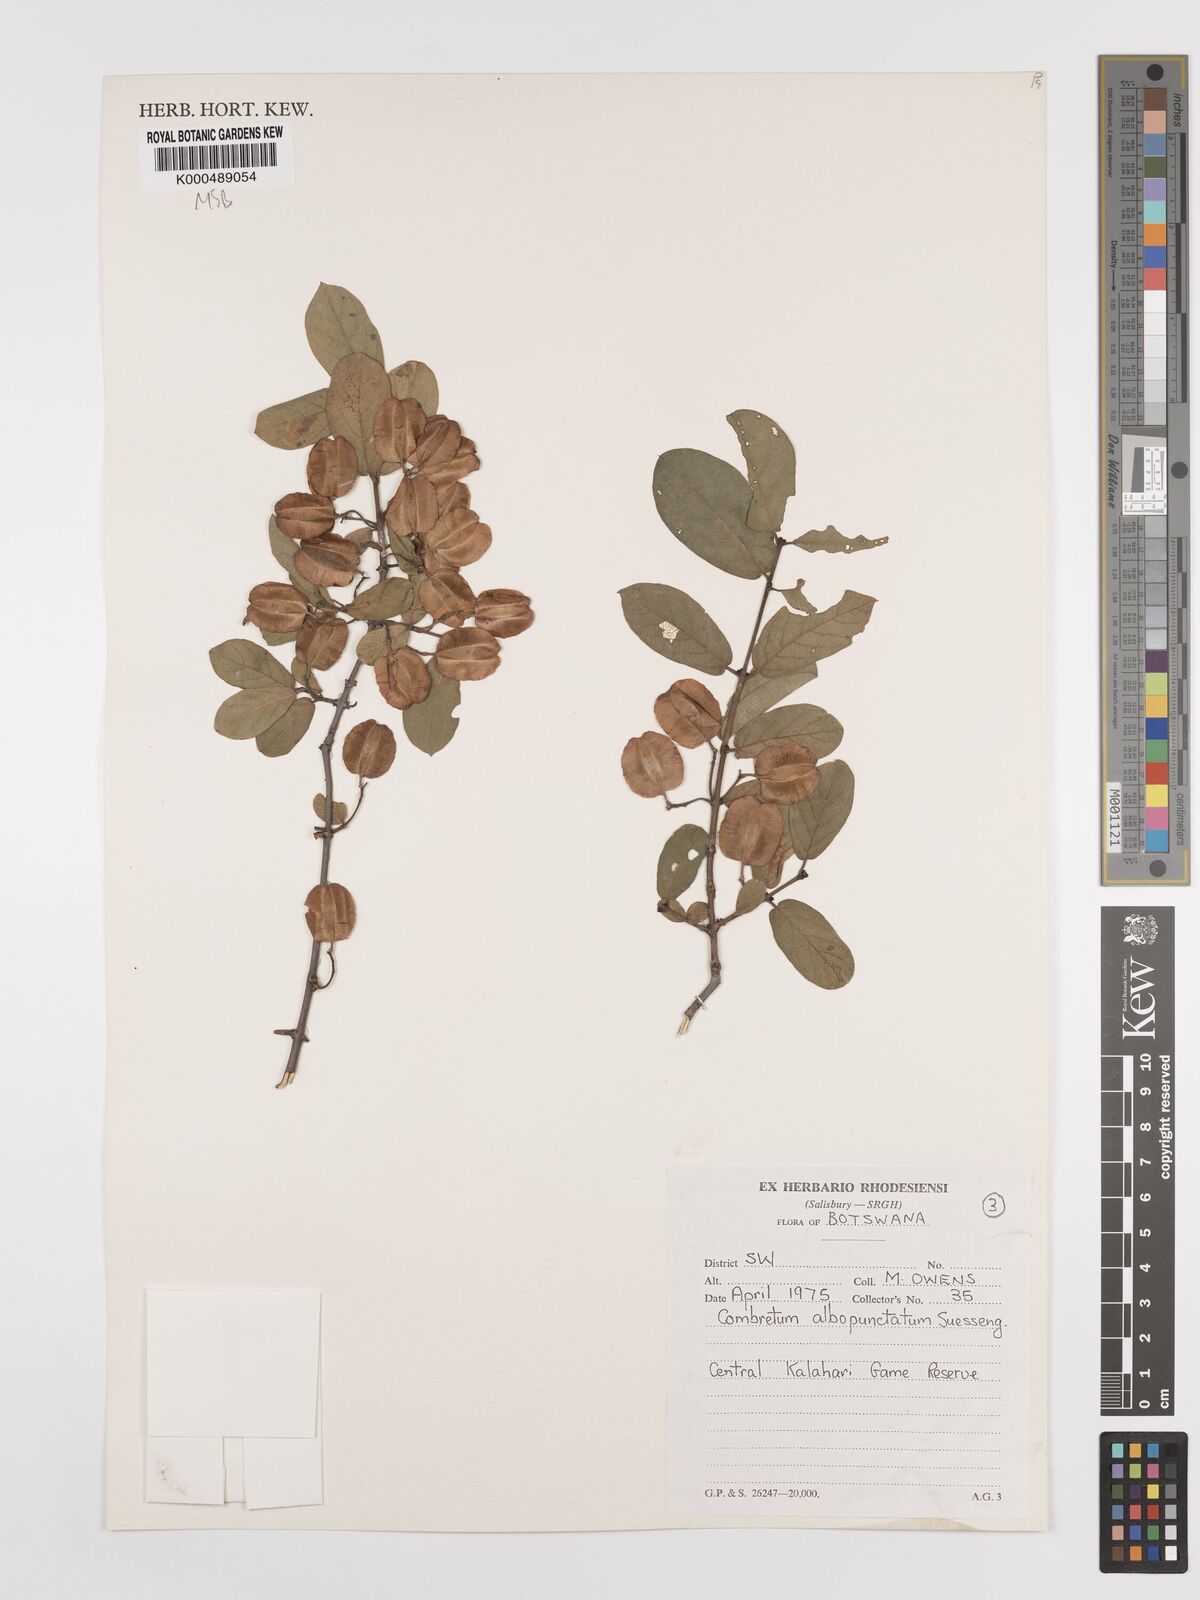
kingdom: Plantae
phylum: Tracheophyta
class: Magnoliopsida
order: Myrtales
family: Combretaceae
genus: Combretum
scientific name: Combretum albopunctatum
